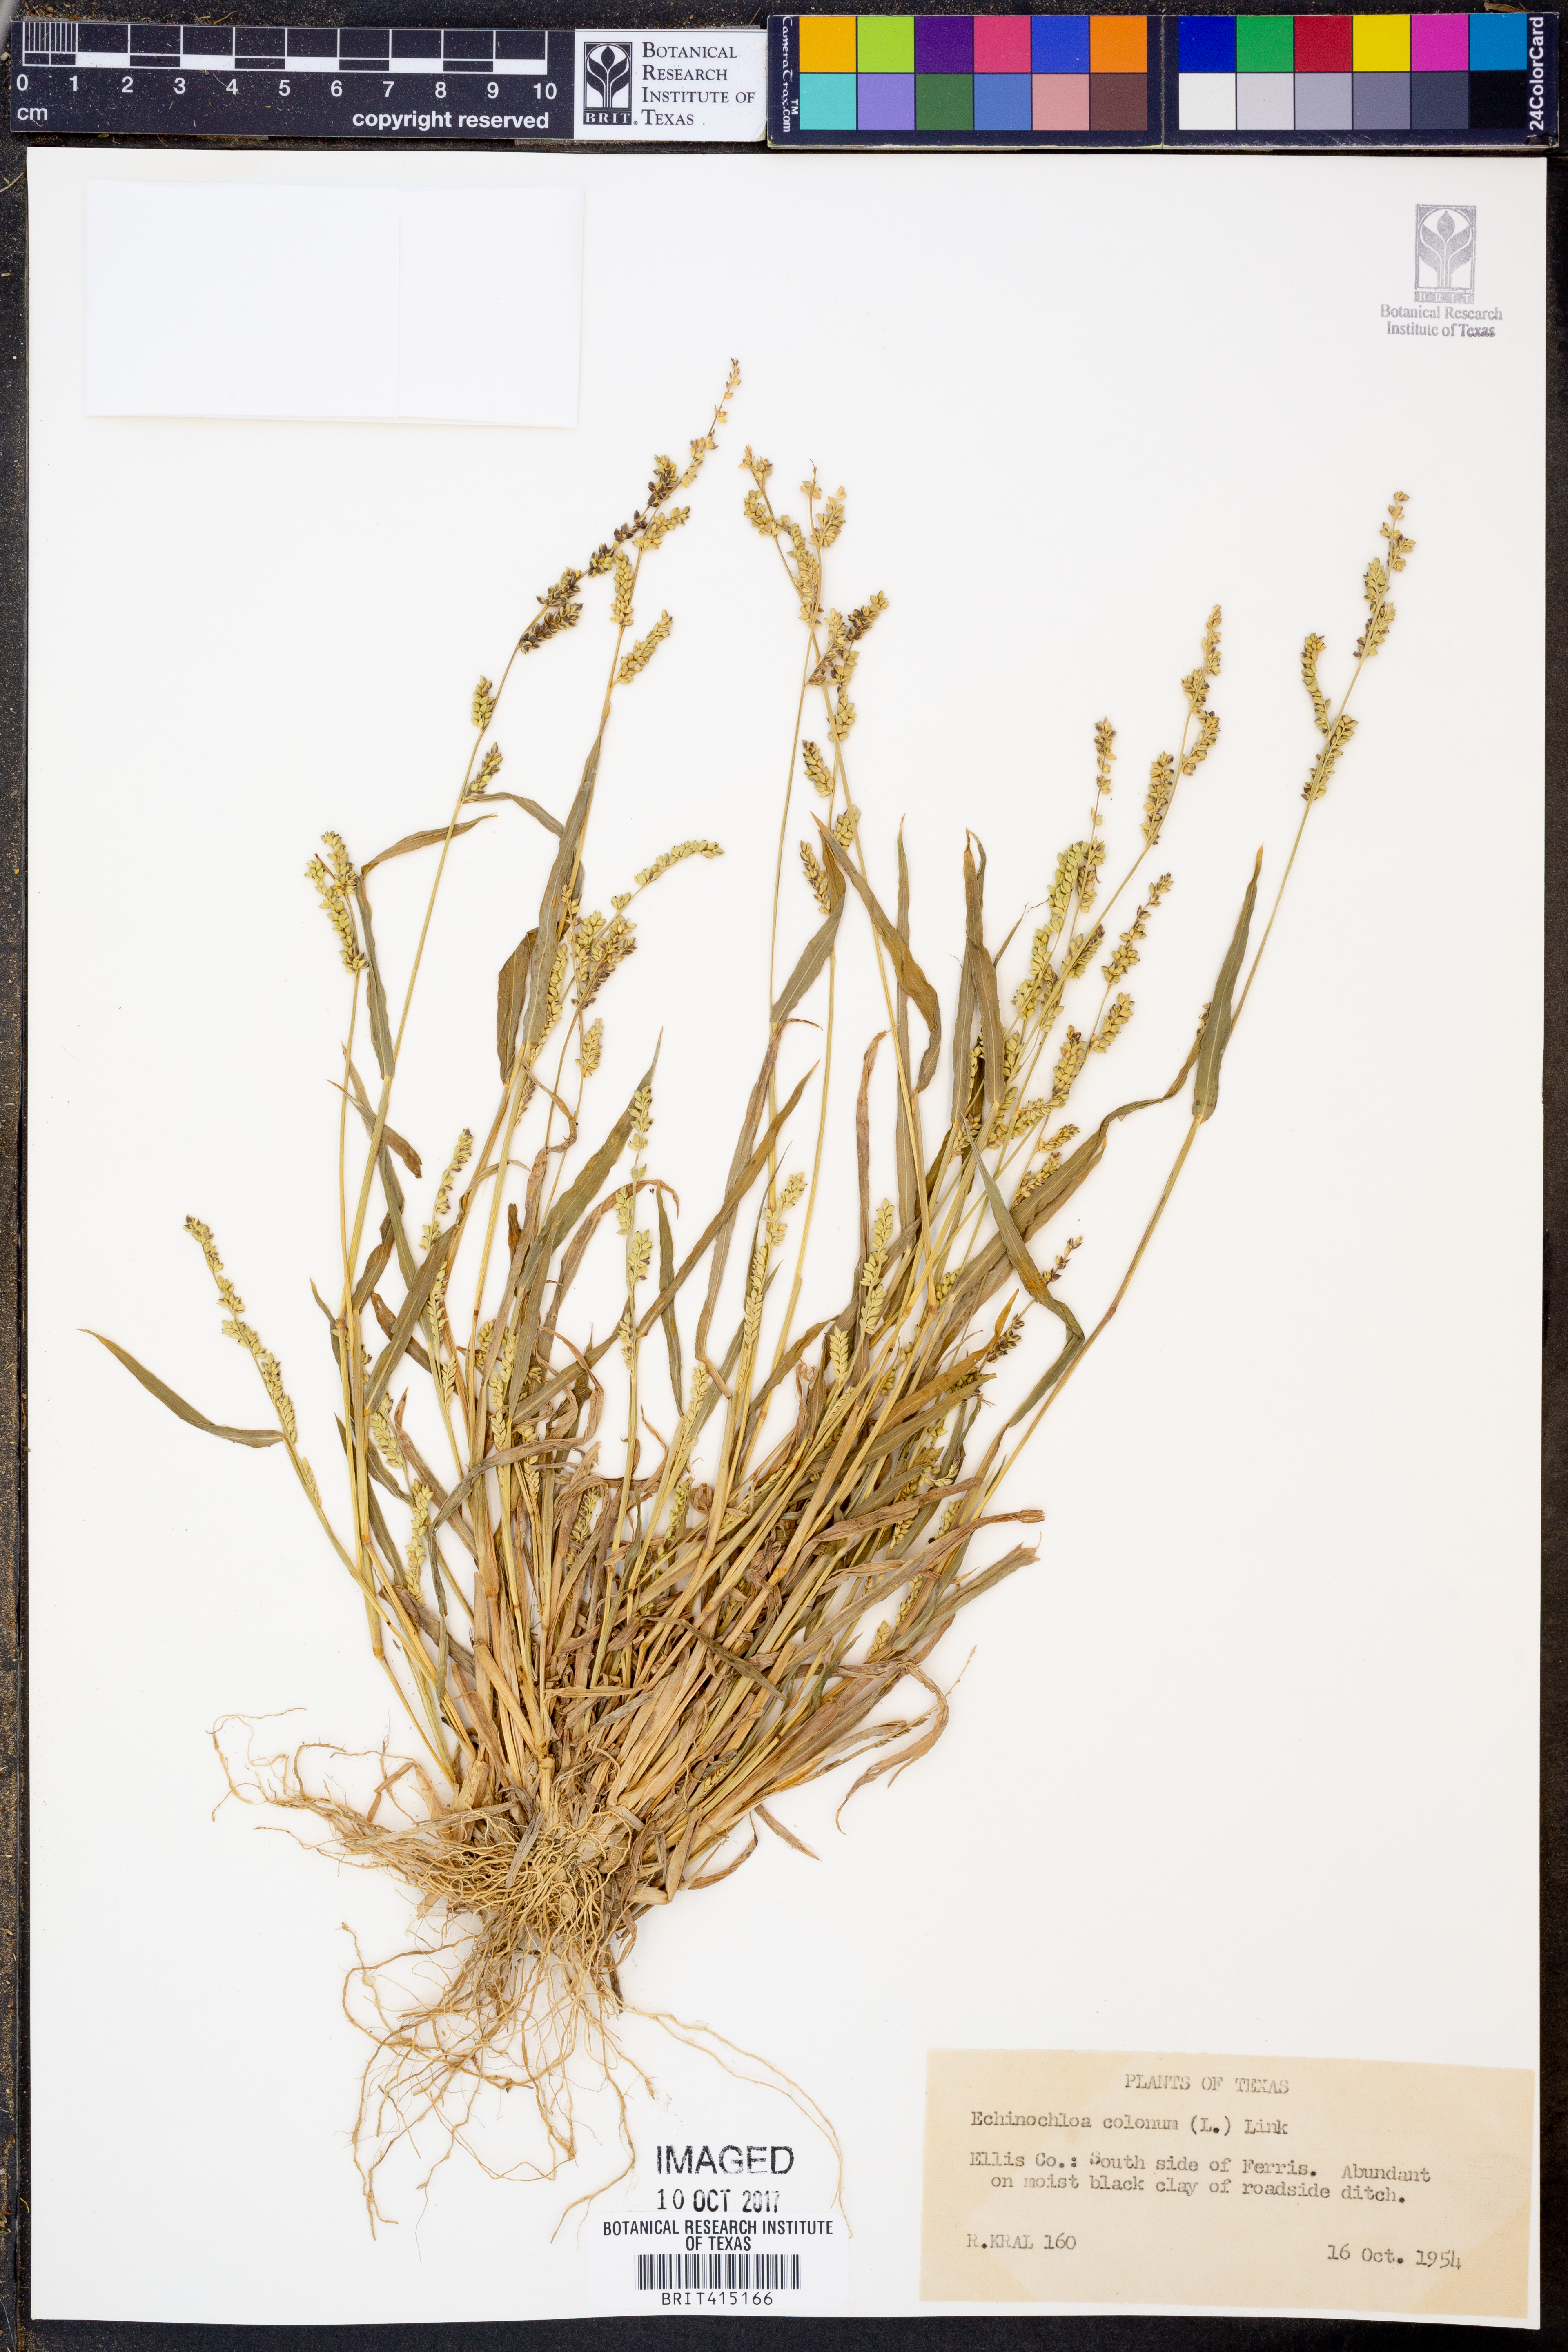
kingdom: Plantae
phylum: Tracheophyta
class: Liliopsida
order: Poales
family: Poaceae
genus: Echinochloa
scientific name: Echinochloa colonum
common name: Jungle rice
